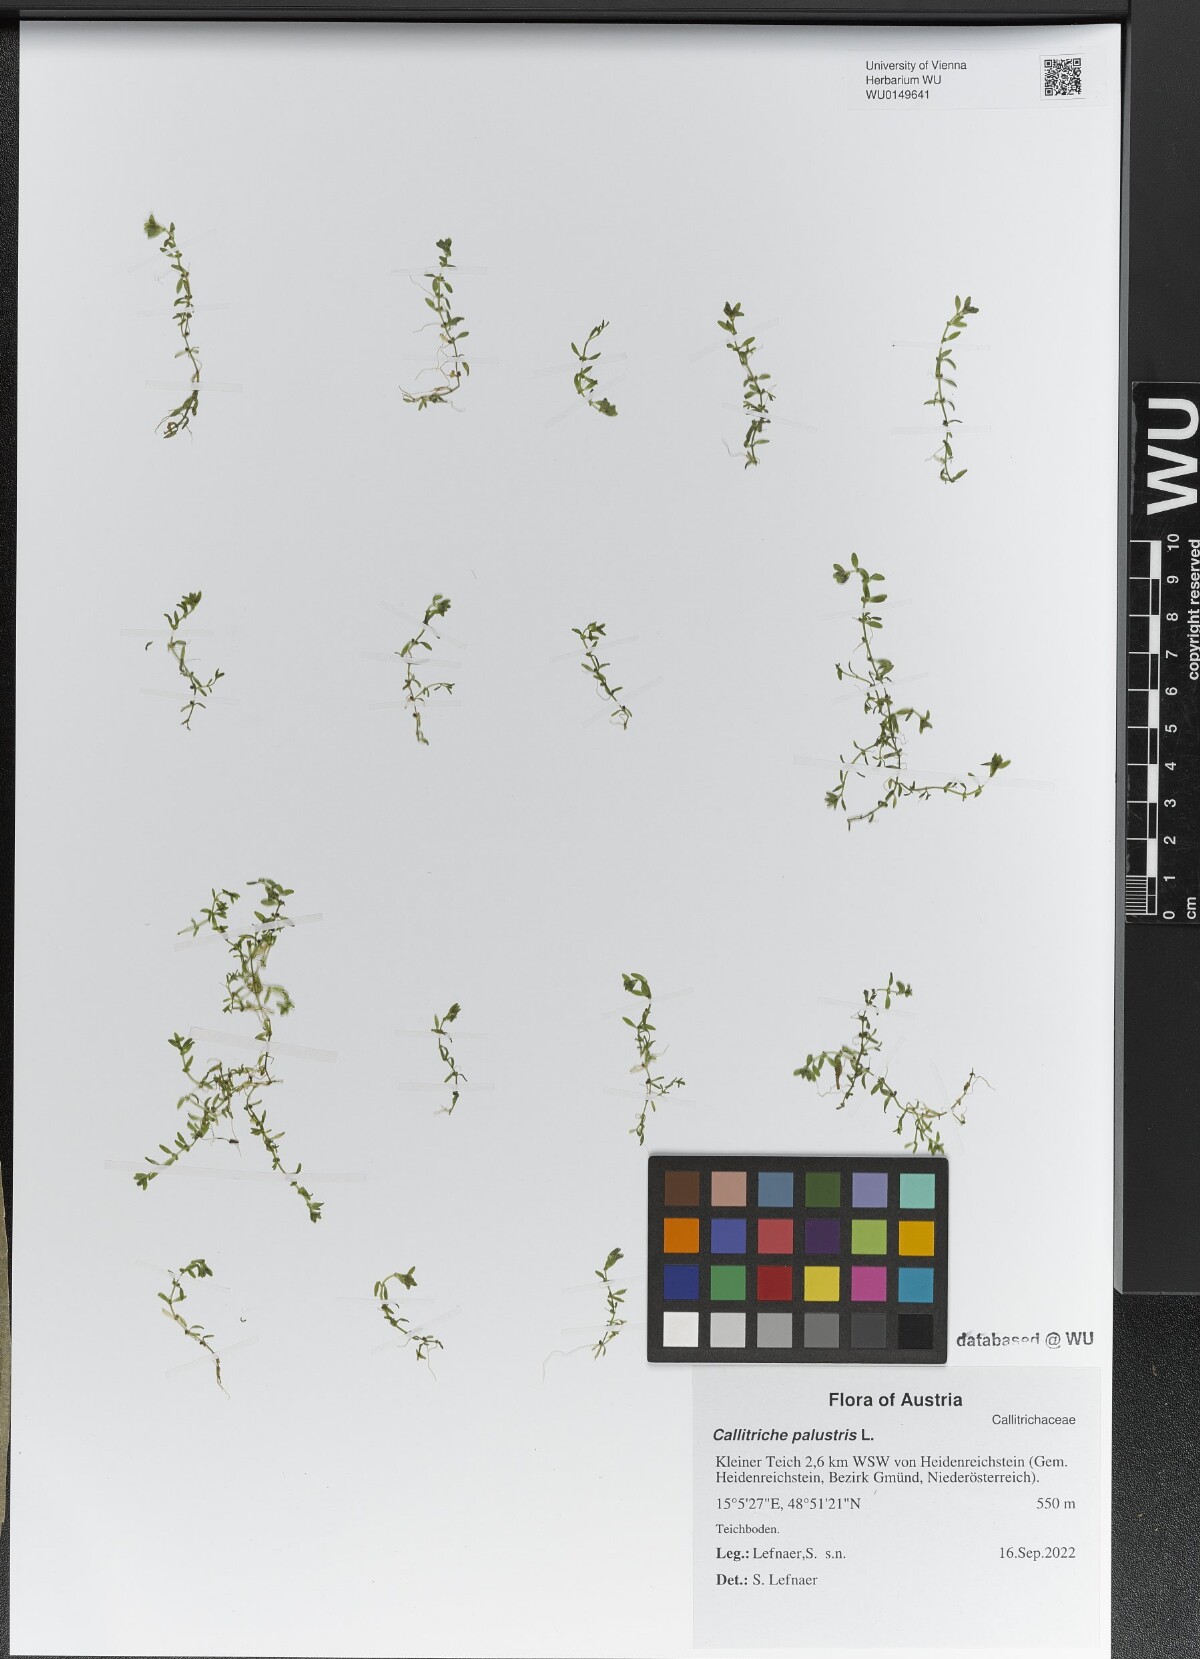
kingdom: Plantae
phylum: Tracheophyta
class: Magnoliopsida
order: Lamiales
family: Plantaginaceae
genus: Callitriche
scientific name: Callitriche palustris
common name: Spring water-starwort
